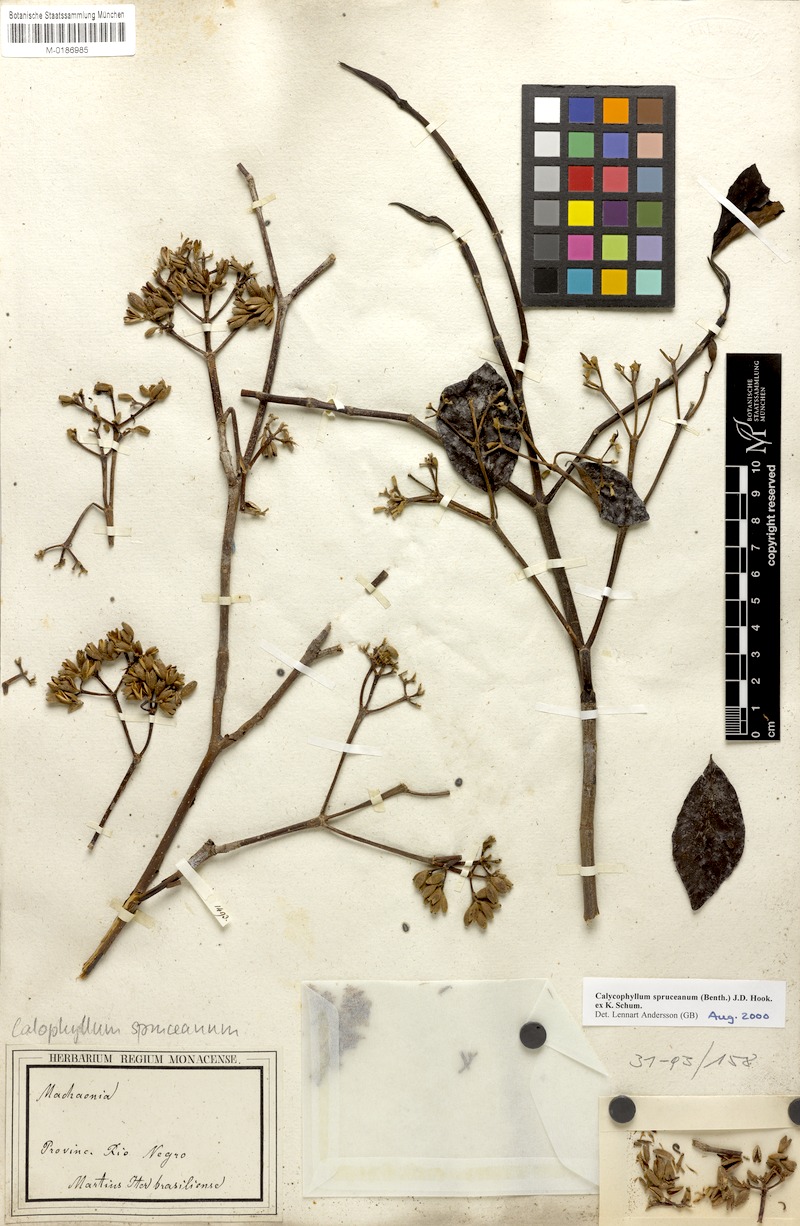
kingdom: Plantae
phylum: Tracheophyta
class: Magnoliopsida
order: Gentianales
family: Rubiaceae
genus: Calycophyllum
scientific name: Calycophyllum spruceanum
